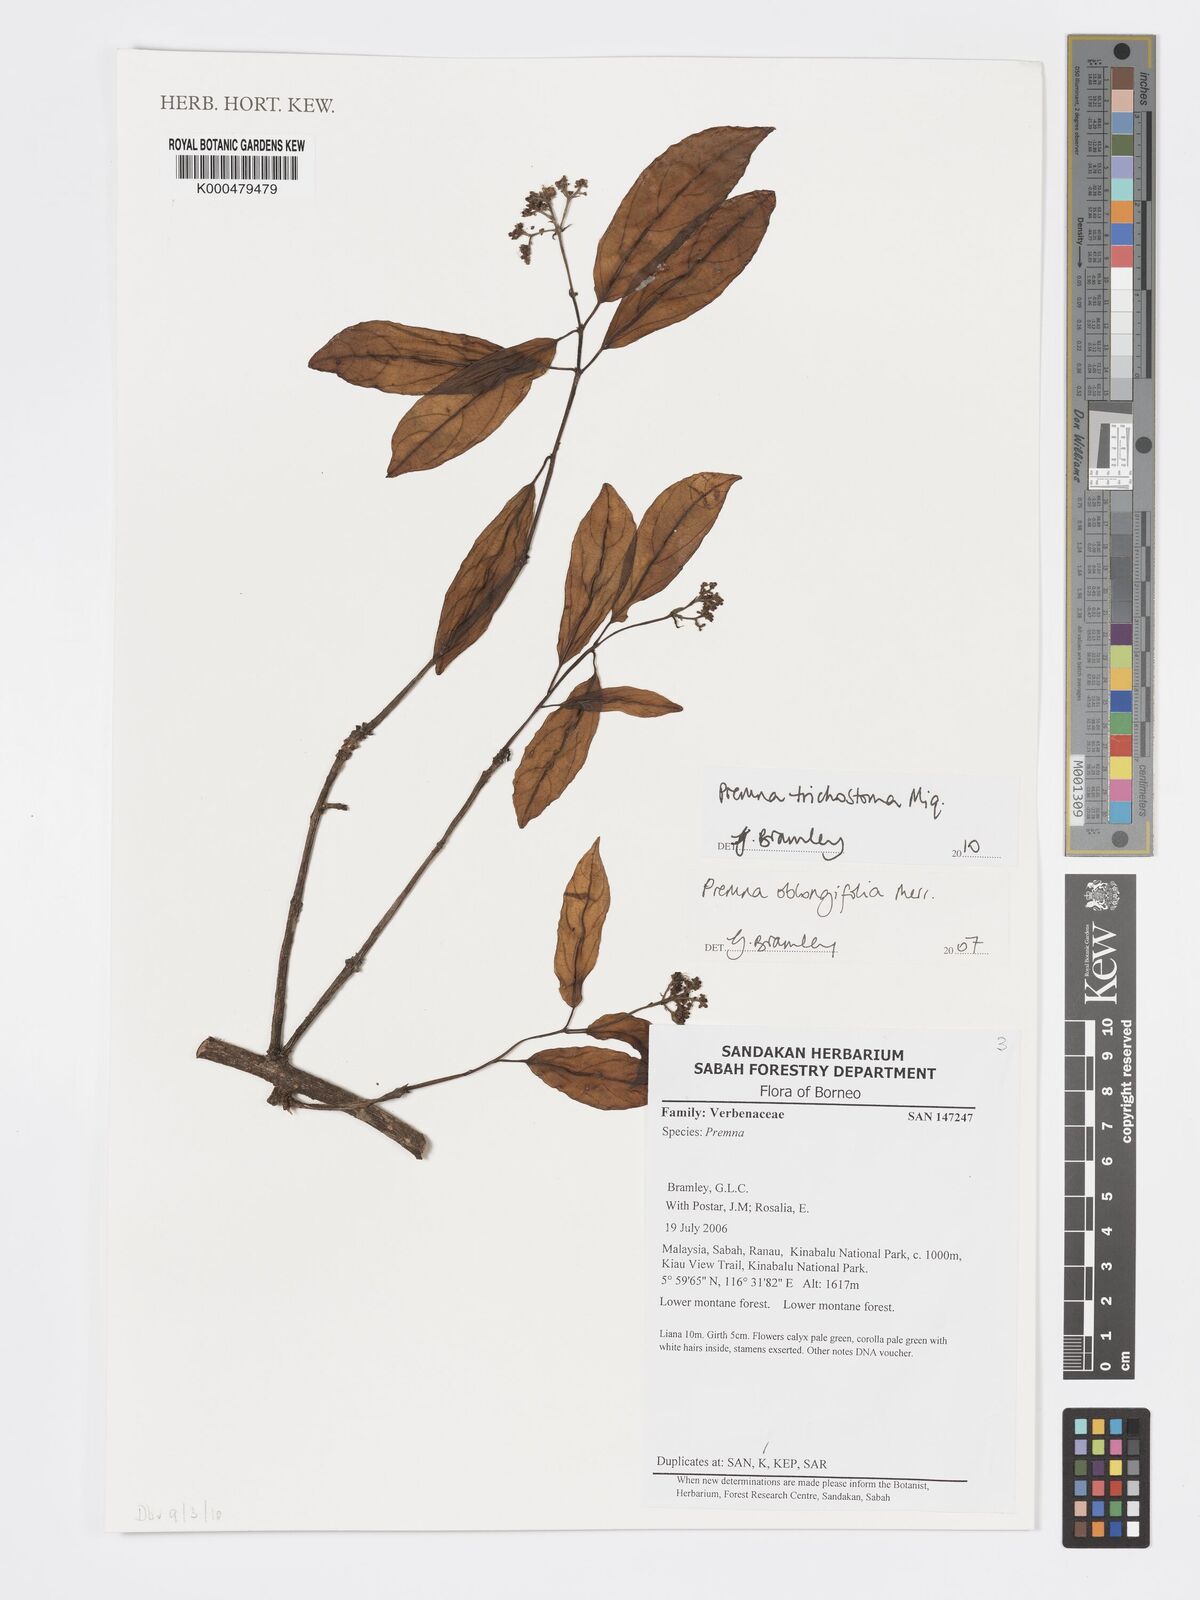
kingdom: Plantae
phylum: Tracheophyta
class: Magnoliopsida
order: Lamiales
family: Lamiaceae
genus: Premna
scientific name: Premna trichostoma
